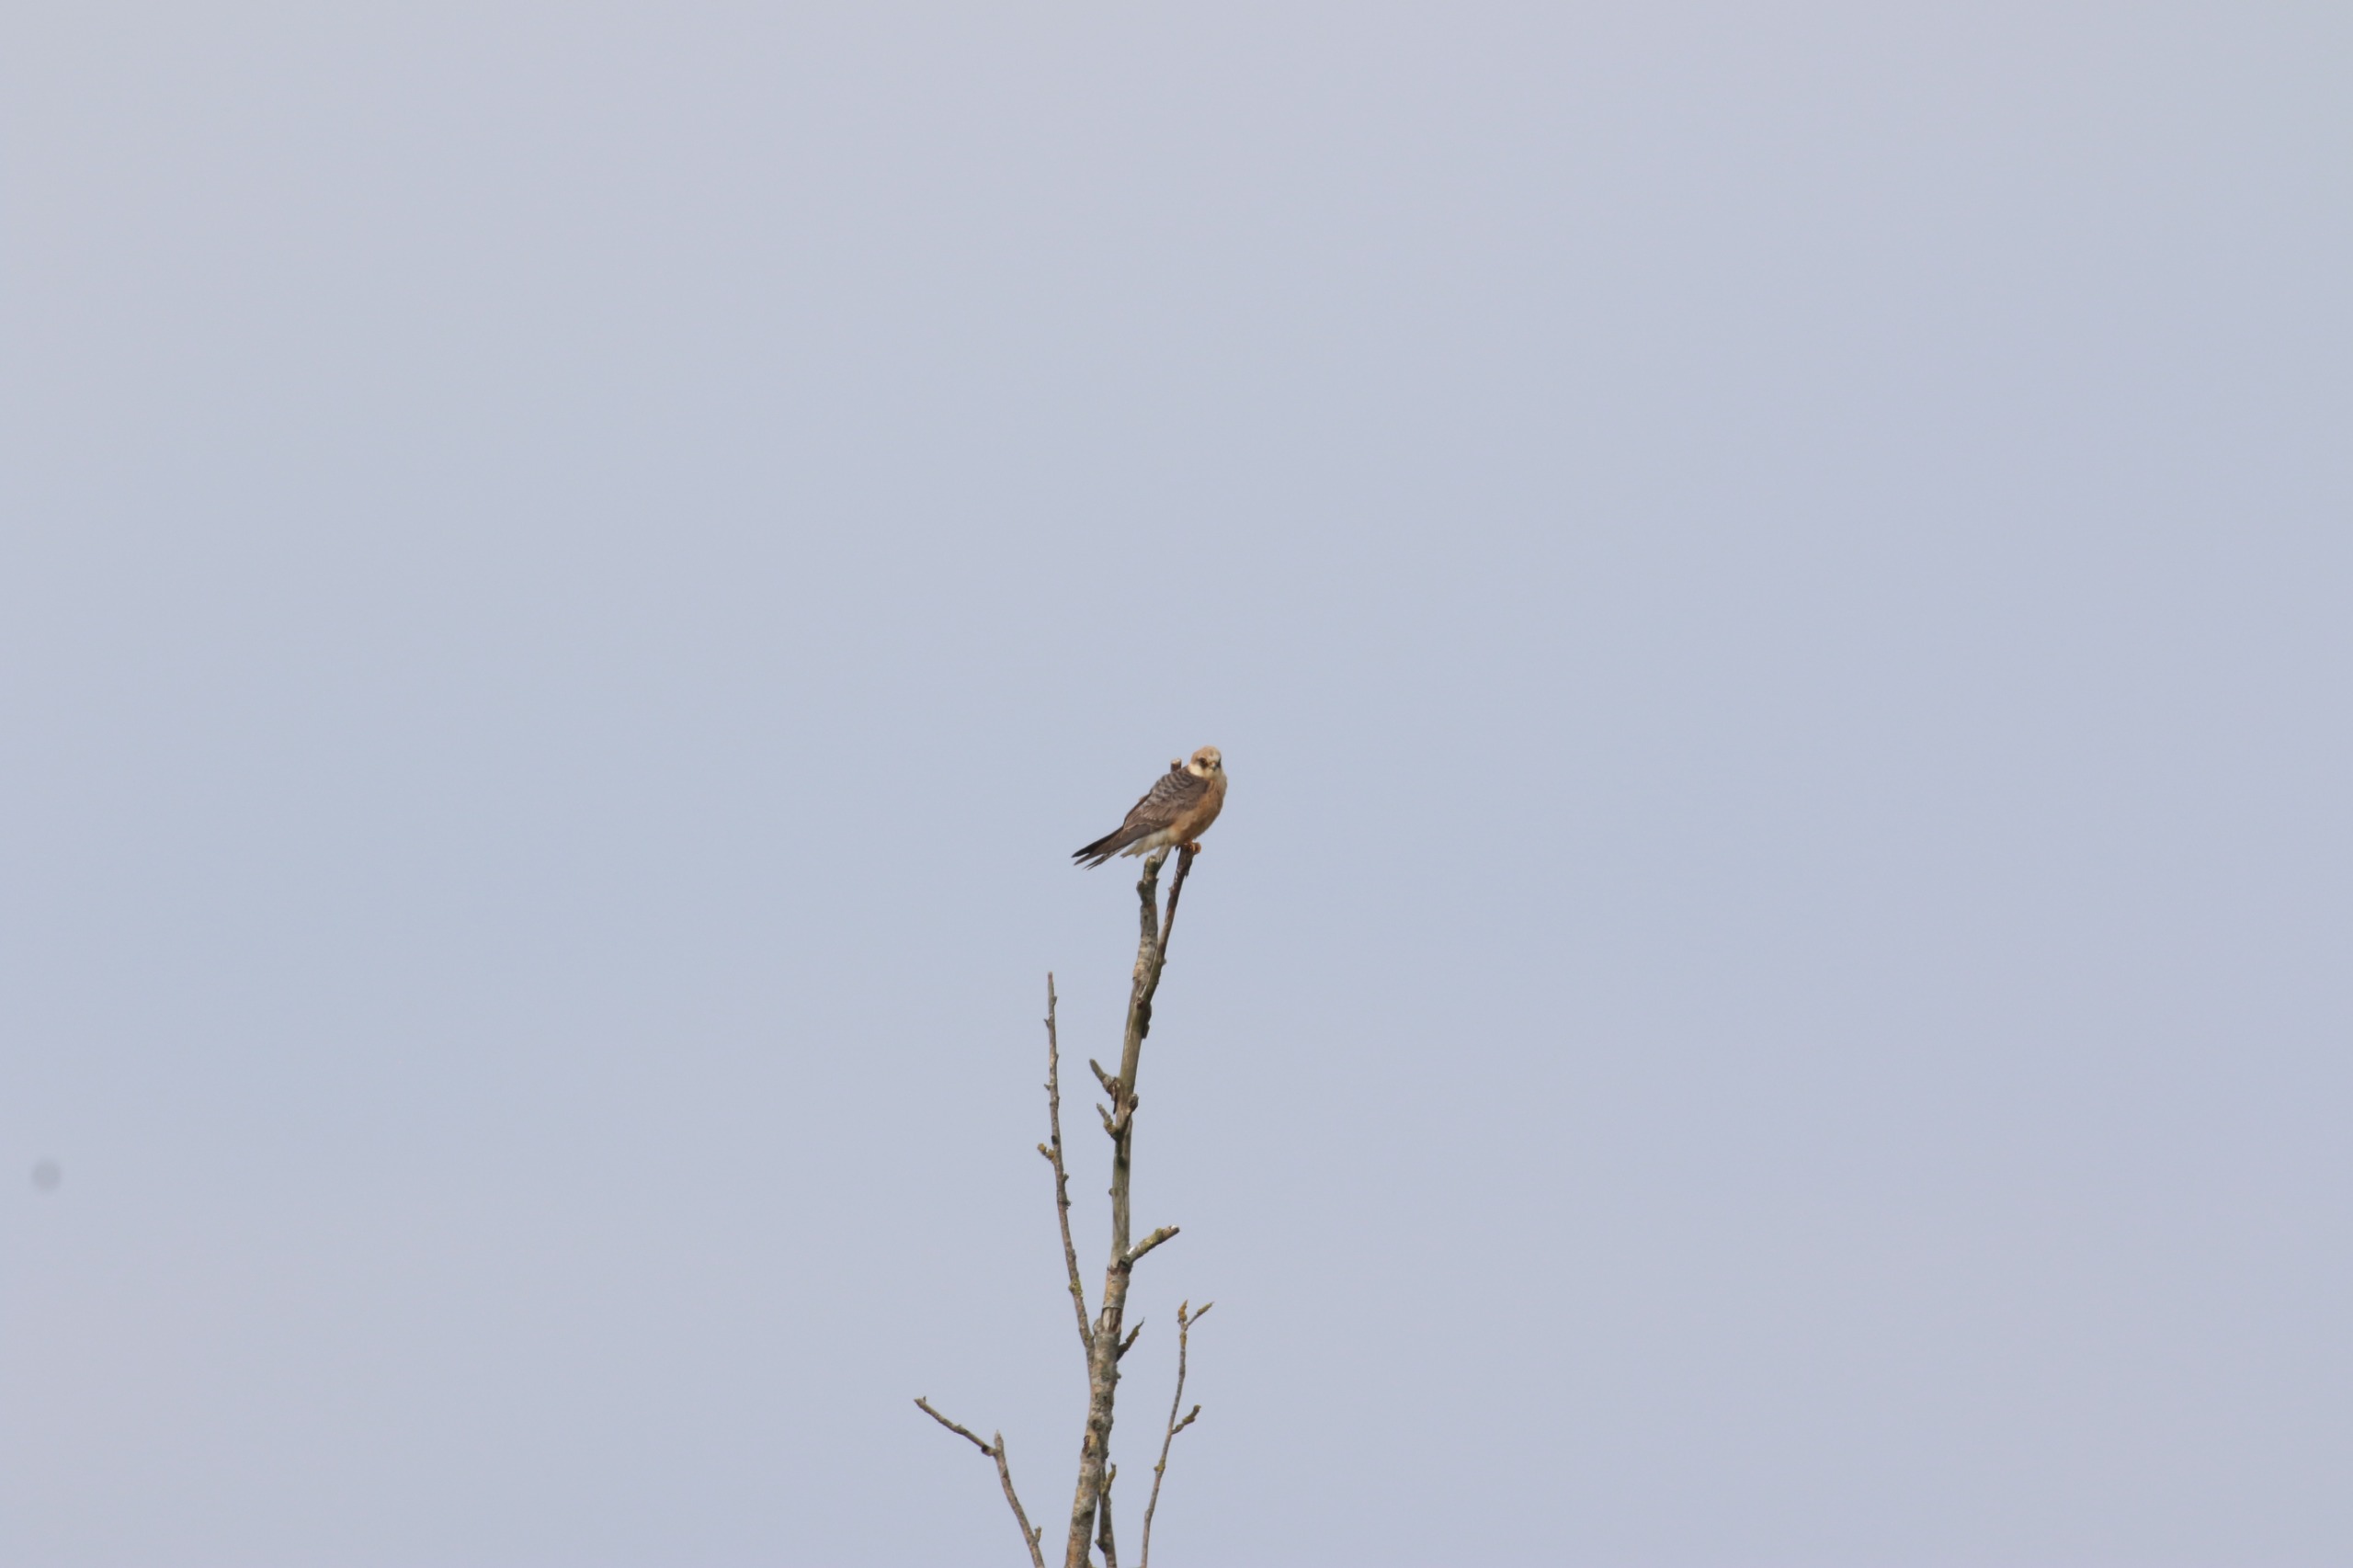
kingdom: Animalia
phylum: Chordata
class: Aves
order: Falconiformes
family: Falconidae
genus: Falco
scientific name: Falco vespertinus
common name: Aftenfalk
